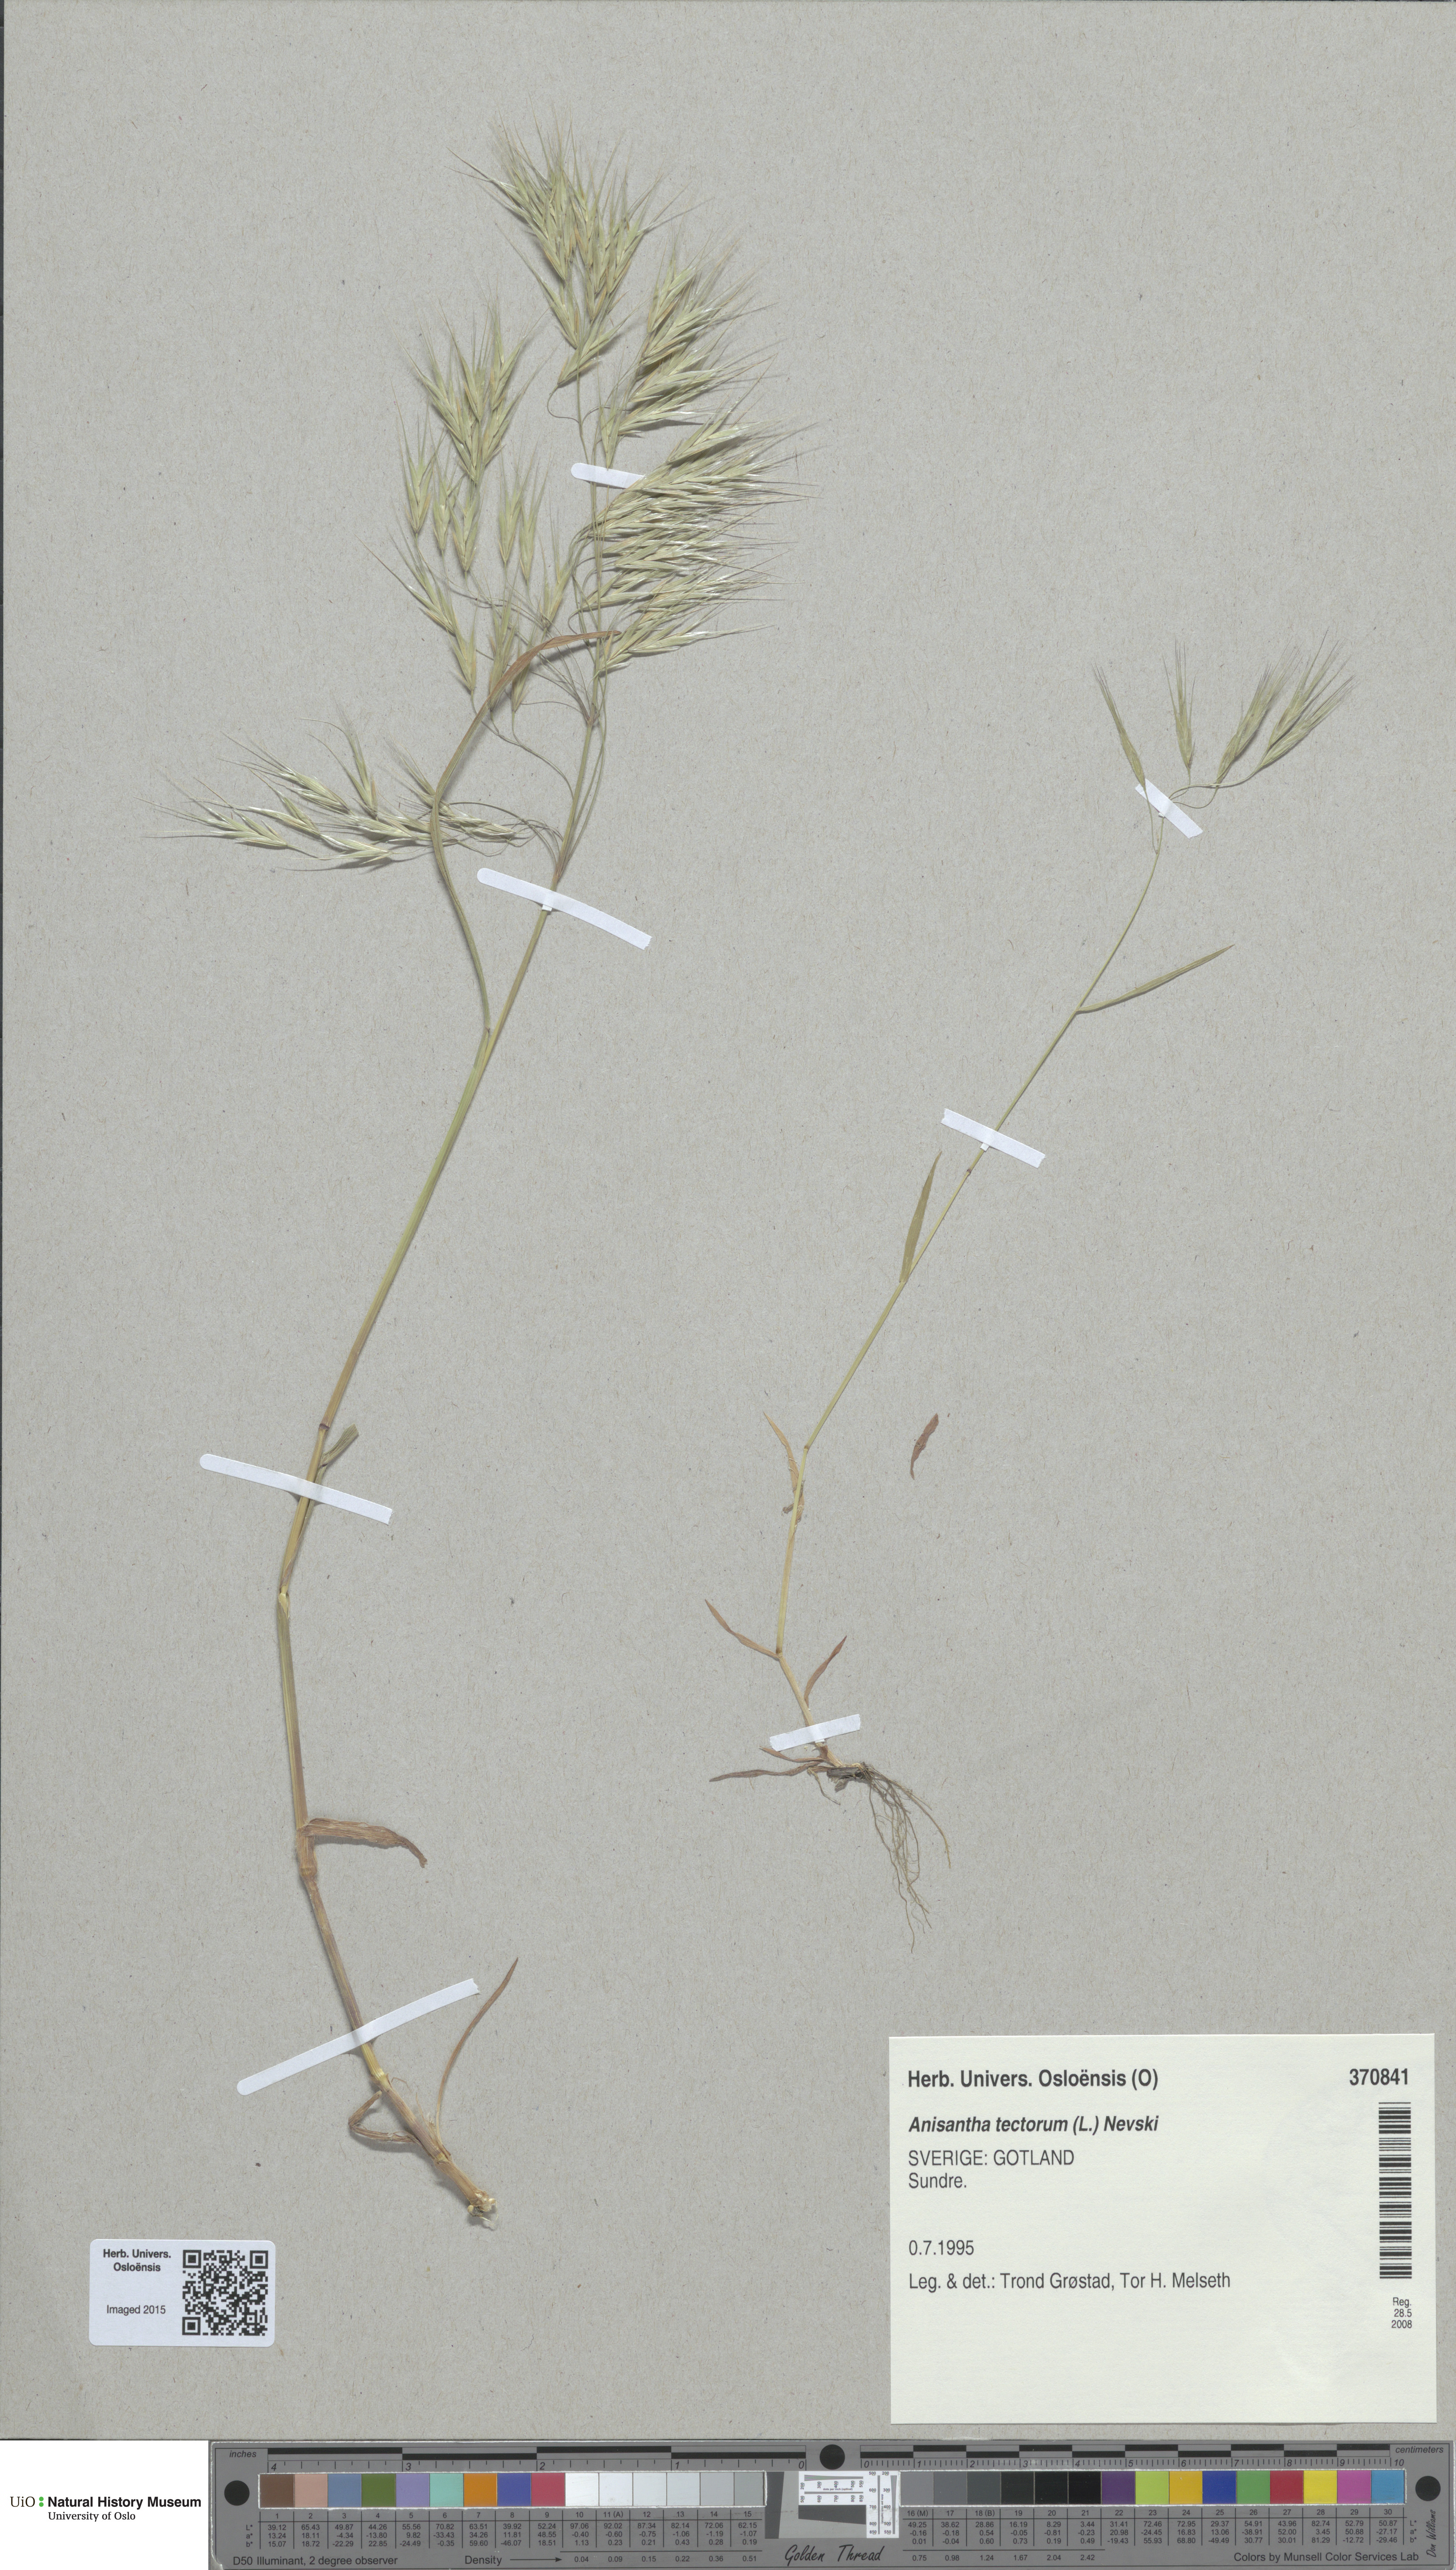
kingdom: Plantae
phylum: Tracheophyta
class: Liliopsida
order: Poales
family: Poaceae
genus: Bromus
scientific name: Bromus tectorum
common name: Cheatgrass
